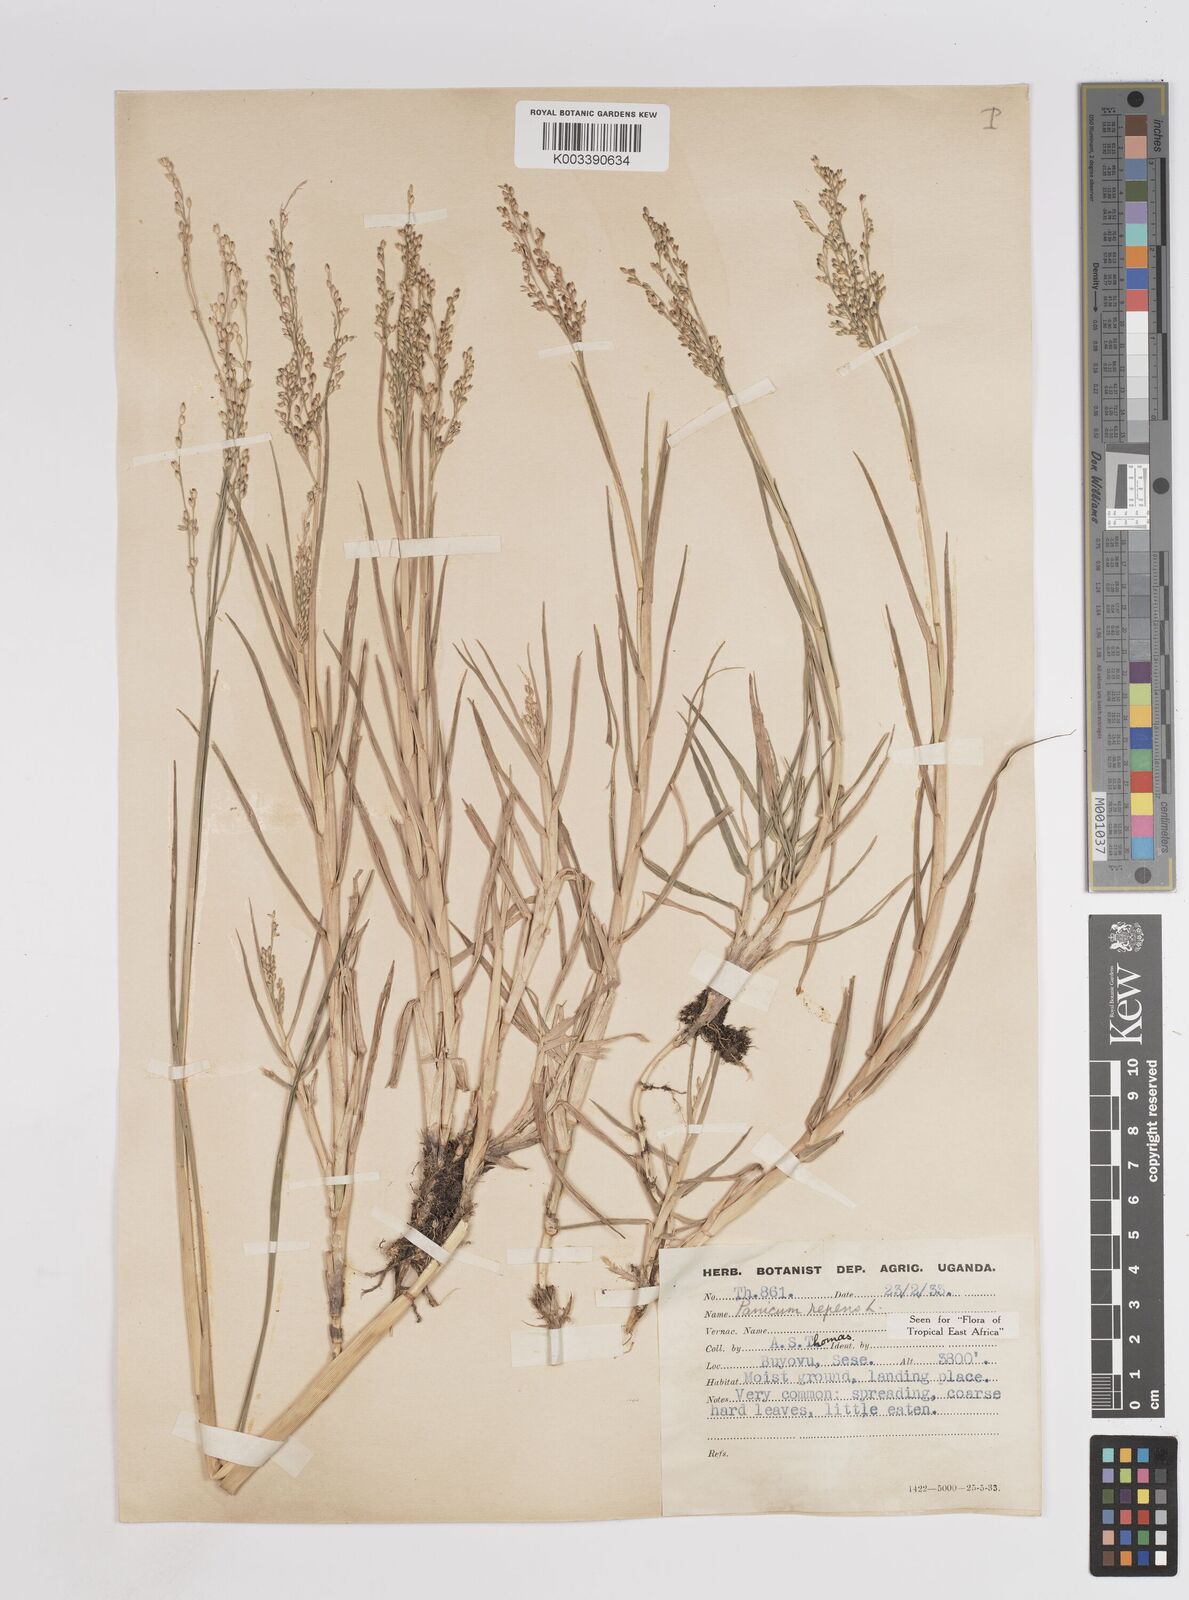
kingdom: Plantae
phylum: Tracheophyta
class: Liliopsida
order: Poales
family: Poaceae
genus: Panicum
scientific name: Panicum repens
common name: Torpedo grass
